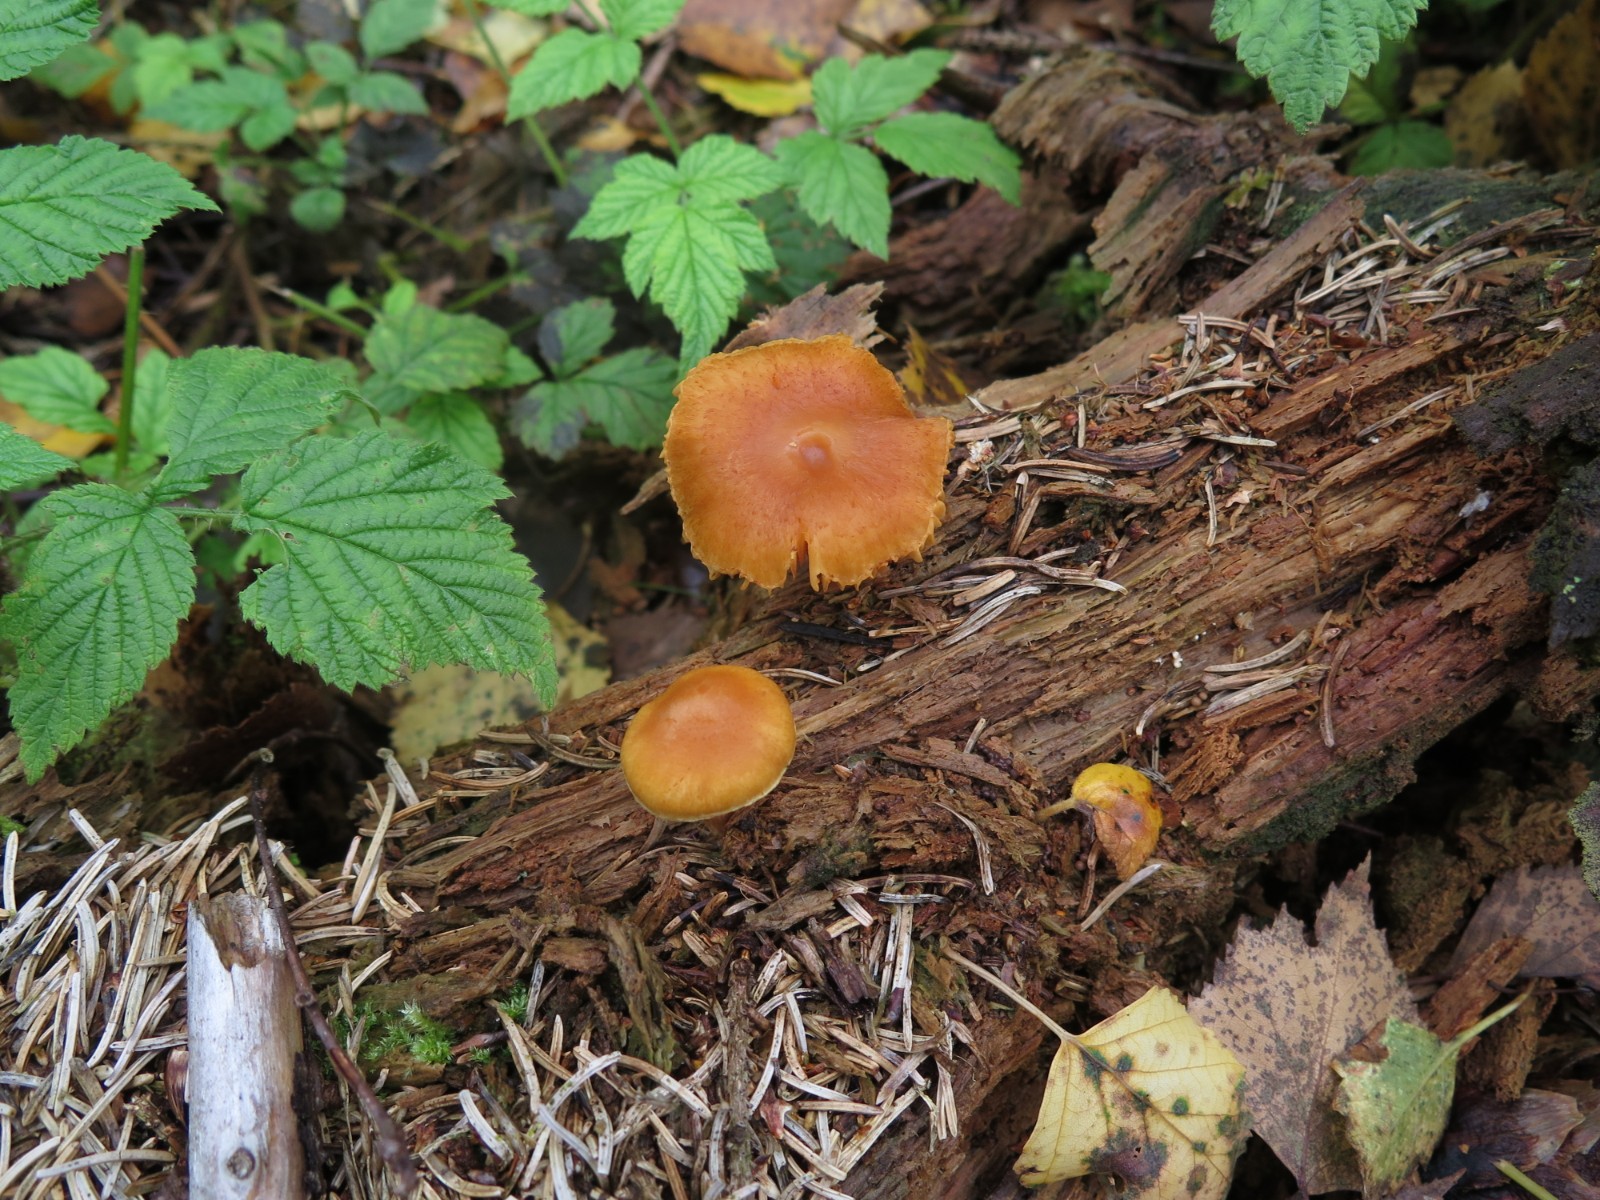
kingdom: Fungi
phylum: Basidiomycota
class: Agaricomycetes
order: Agaricales
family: Hymenogastraceae
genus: Gymnopilus
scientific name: Gymnopilus penetrans
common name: plettet flammehat
